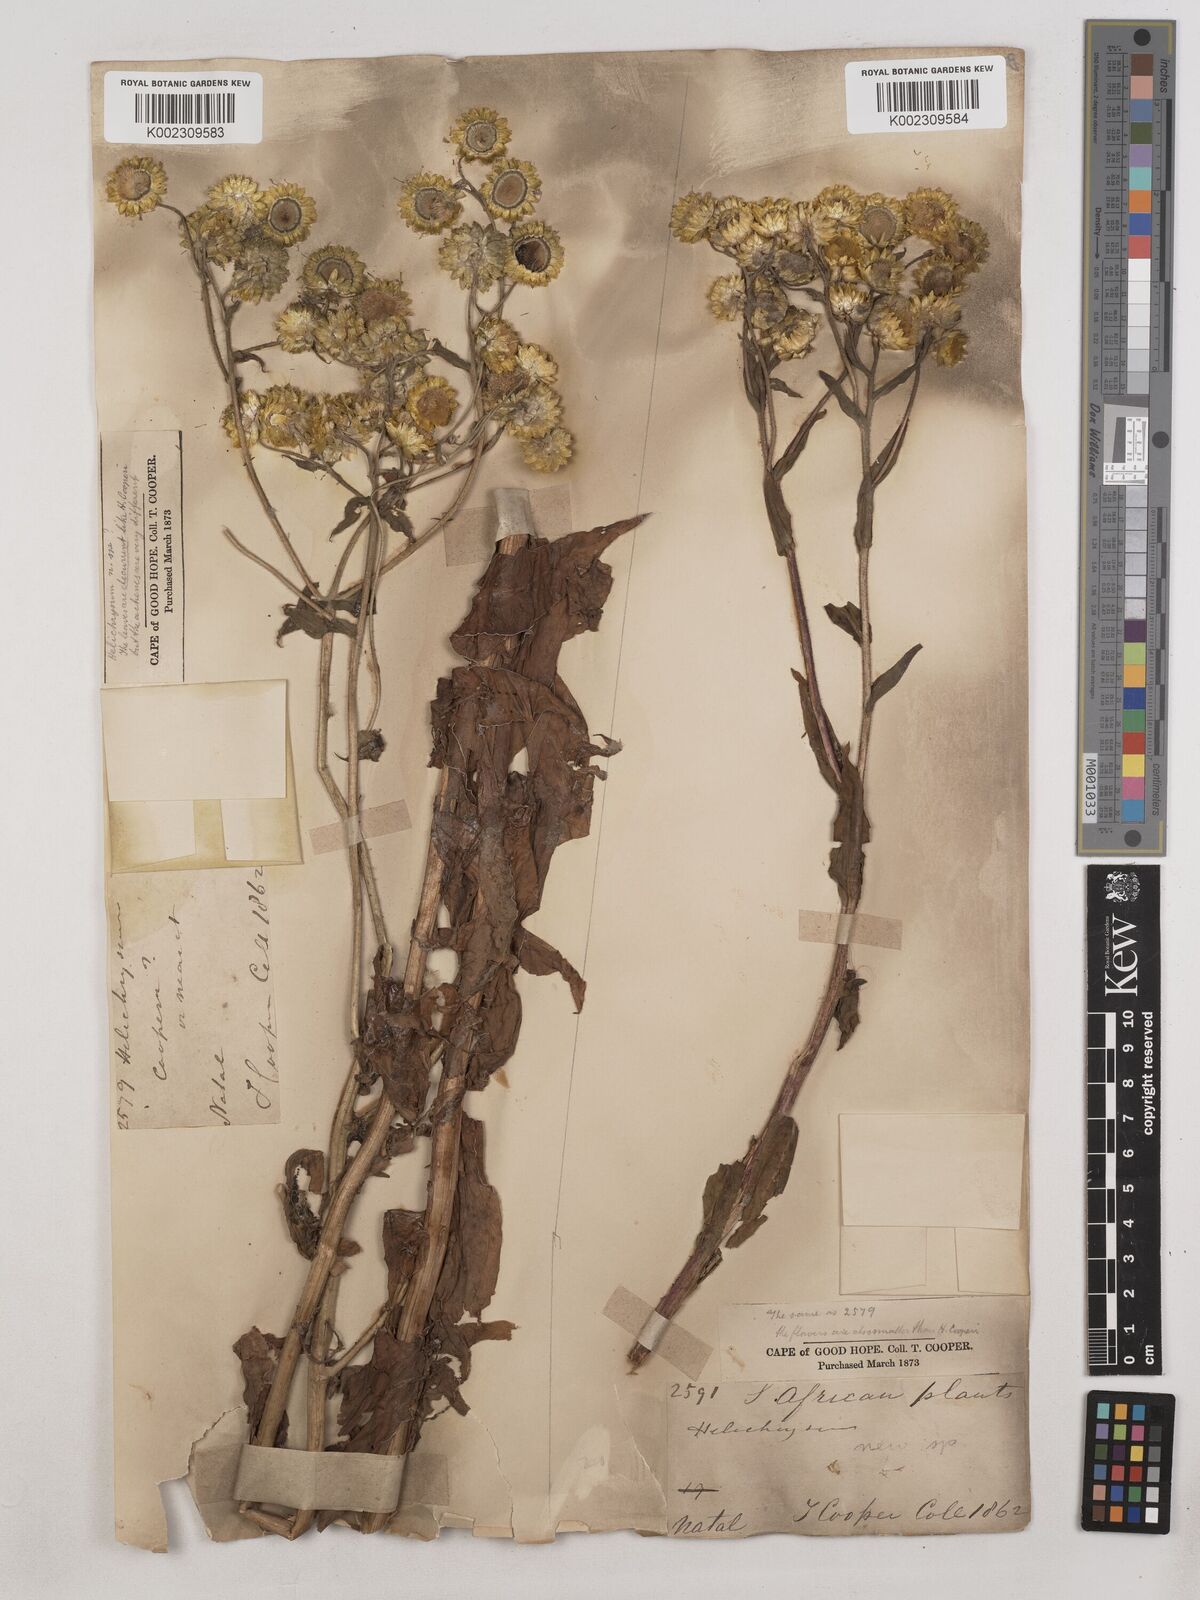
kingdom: Plantae
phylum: Tracheophyta
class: Magnoliopsida
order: Asterales
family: Asteraceae
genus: Helichrysum
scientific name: Helichrysum cooperi
